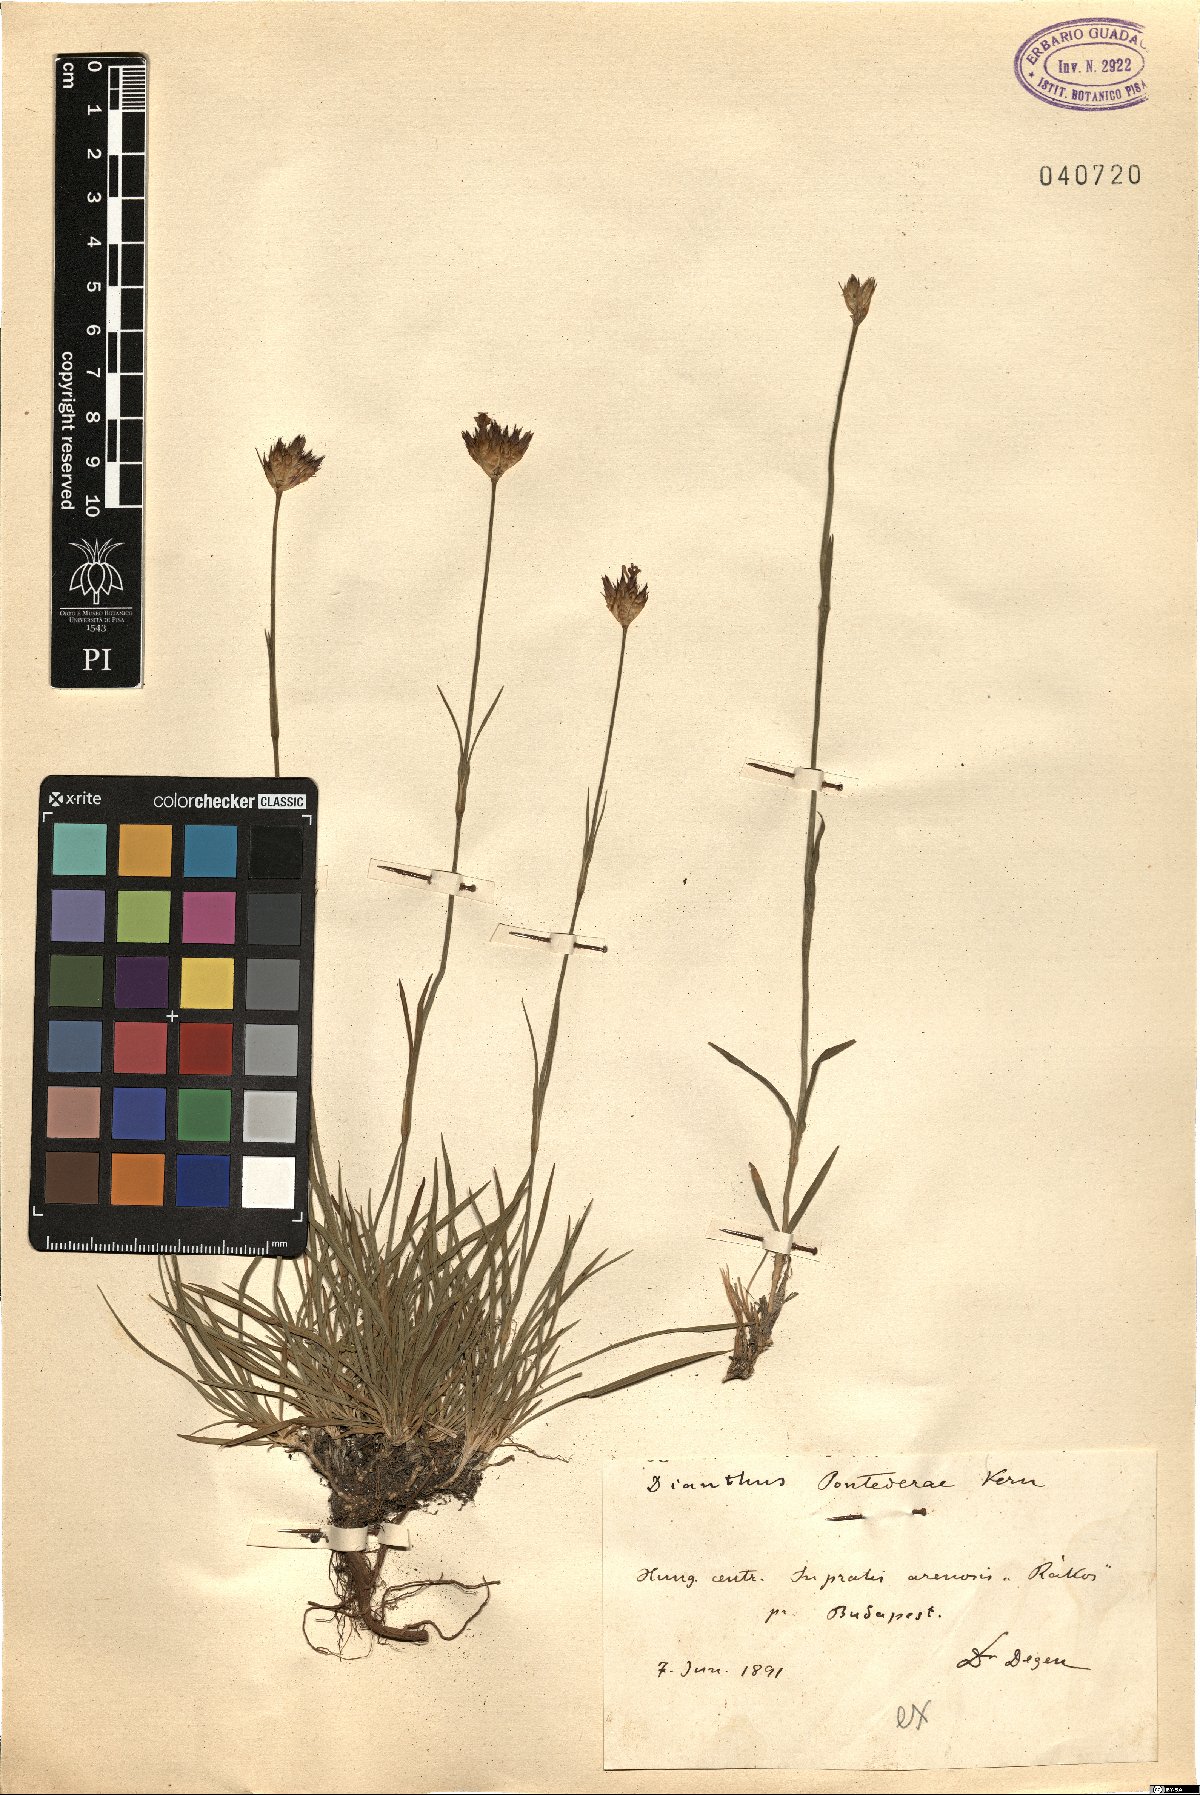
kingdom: Plantae
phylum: Tracheophyta
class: Magnoliopsida
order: Caryophyllales
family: Caryophyllaceae
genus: Dianthus
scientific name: Dianthus pontederae
